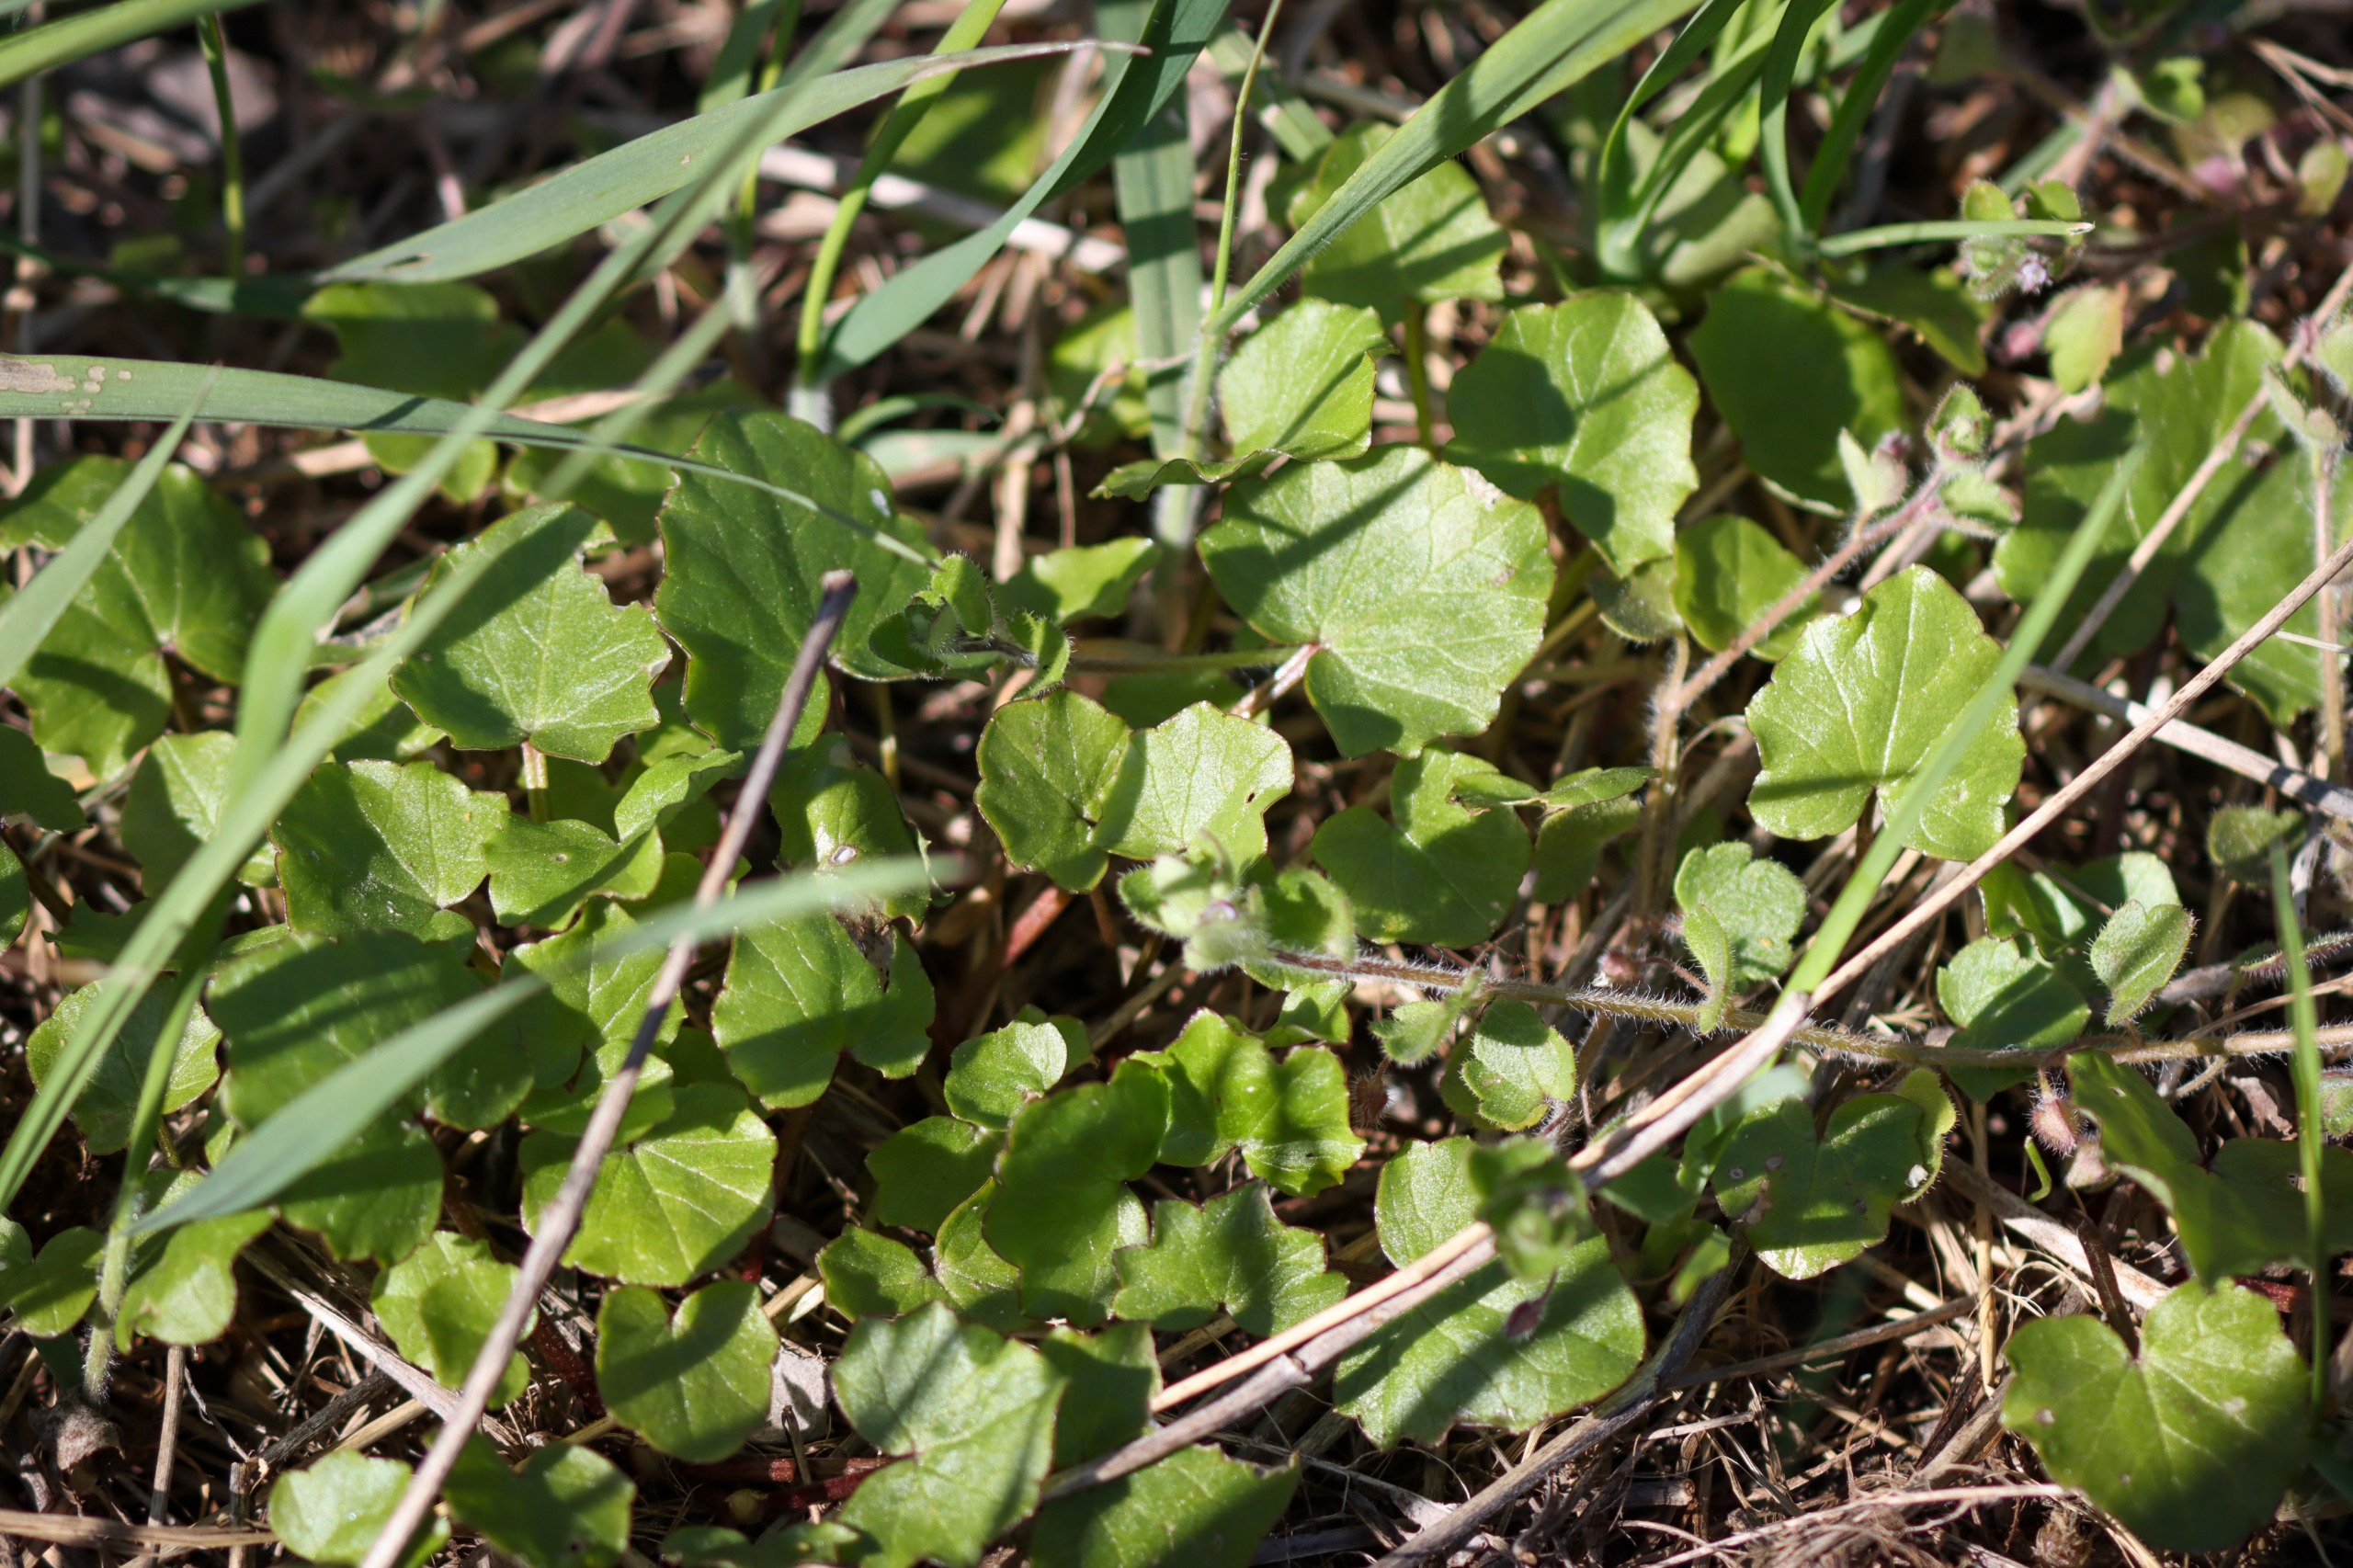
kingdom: Plantae
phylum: Tracheophyta
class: Magnoliopsida
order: Ranunculales
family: Ranunculaceae
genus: Ficaria
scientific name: Ficaria verna
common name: Vorterod
